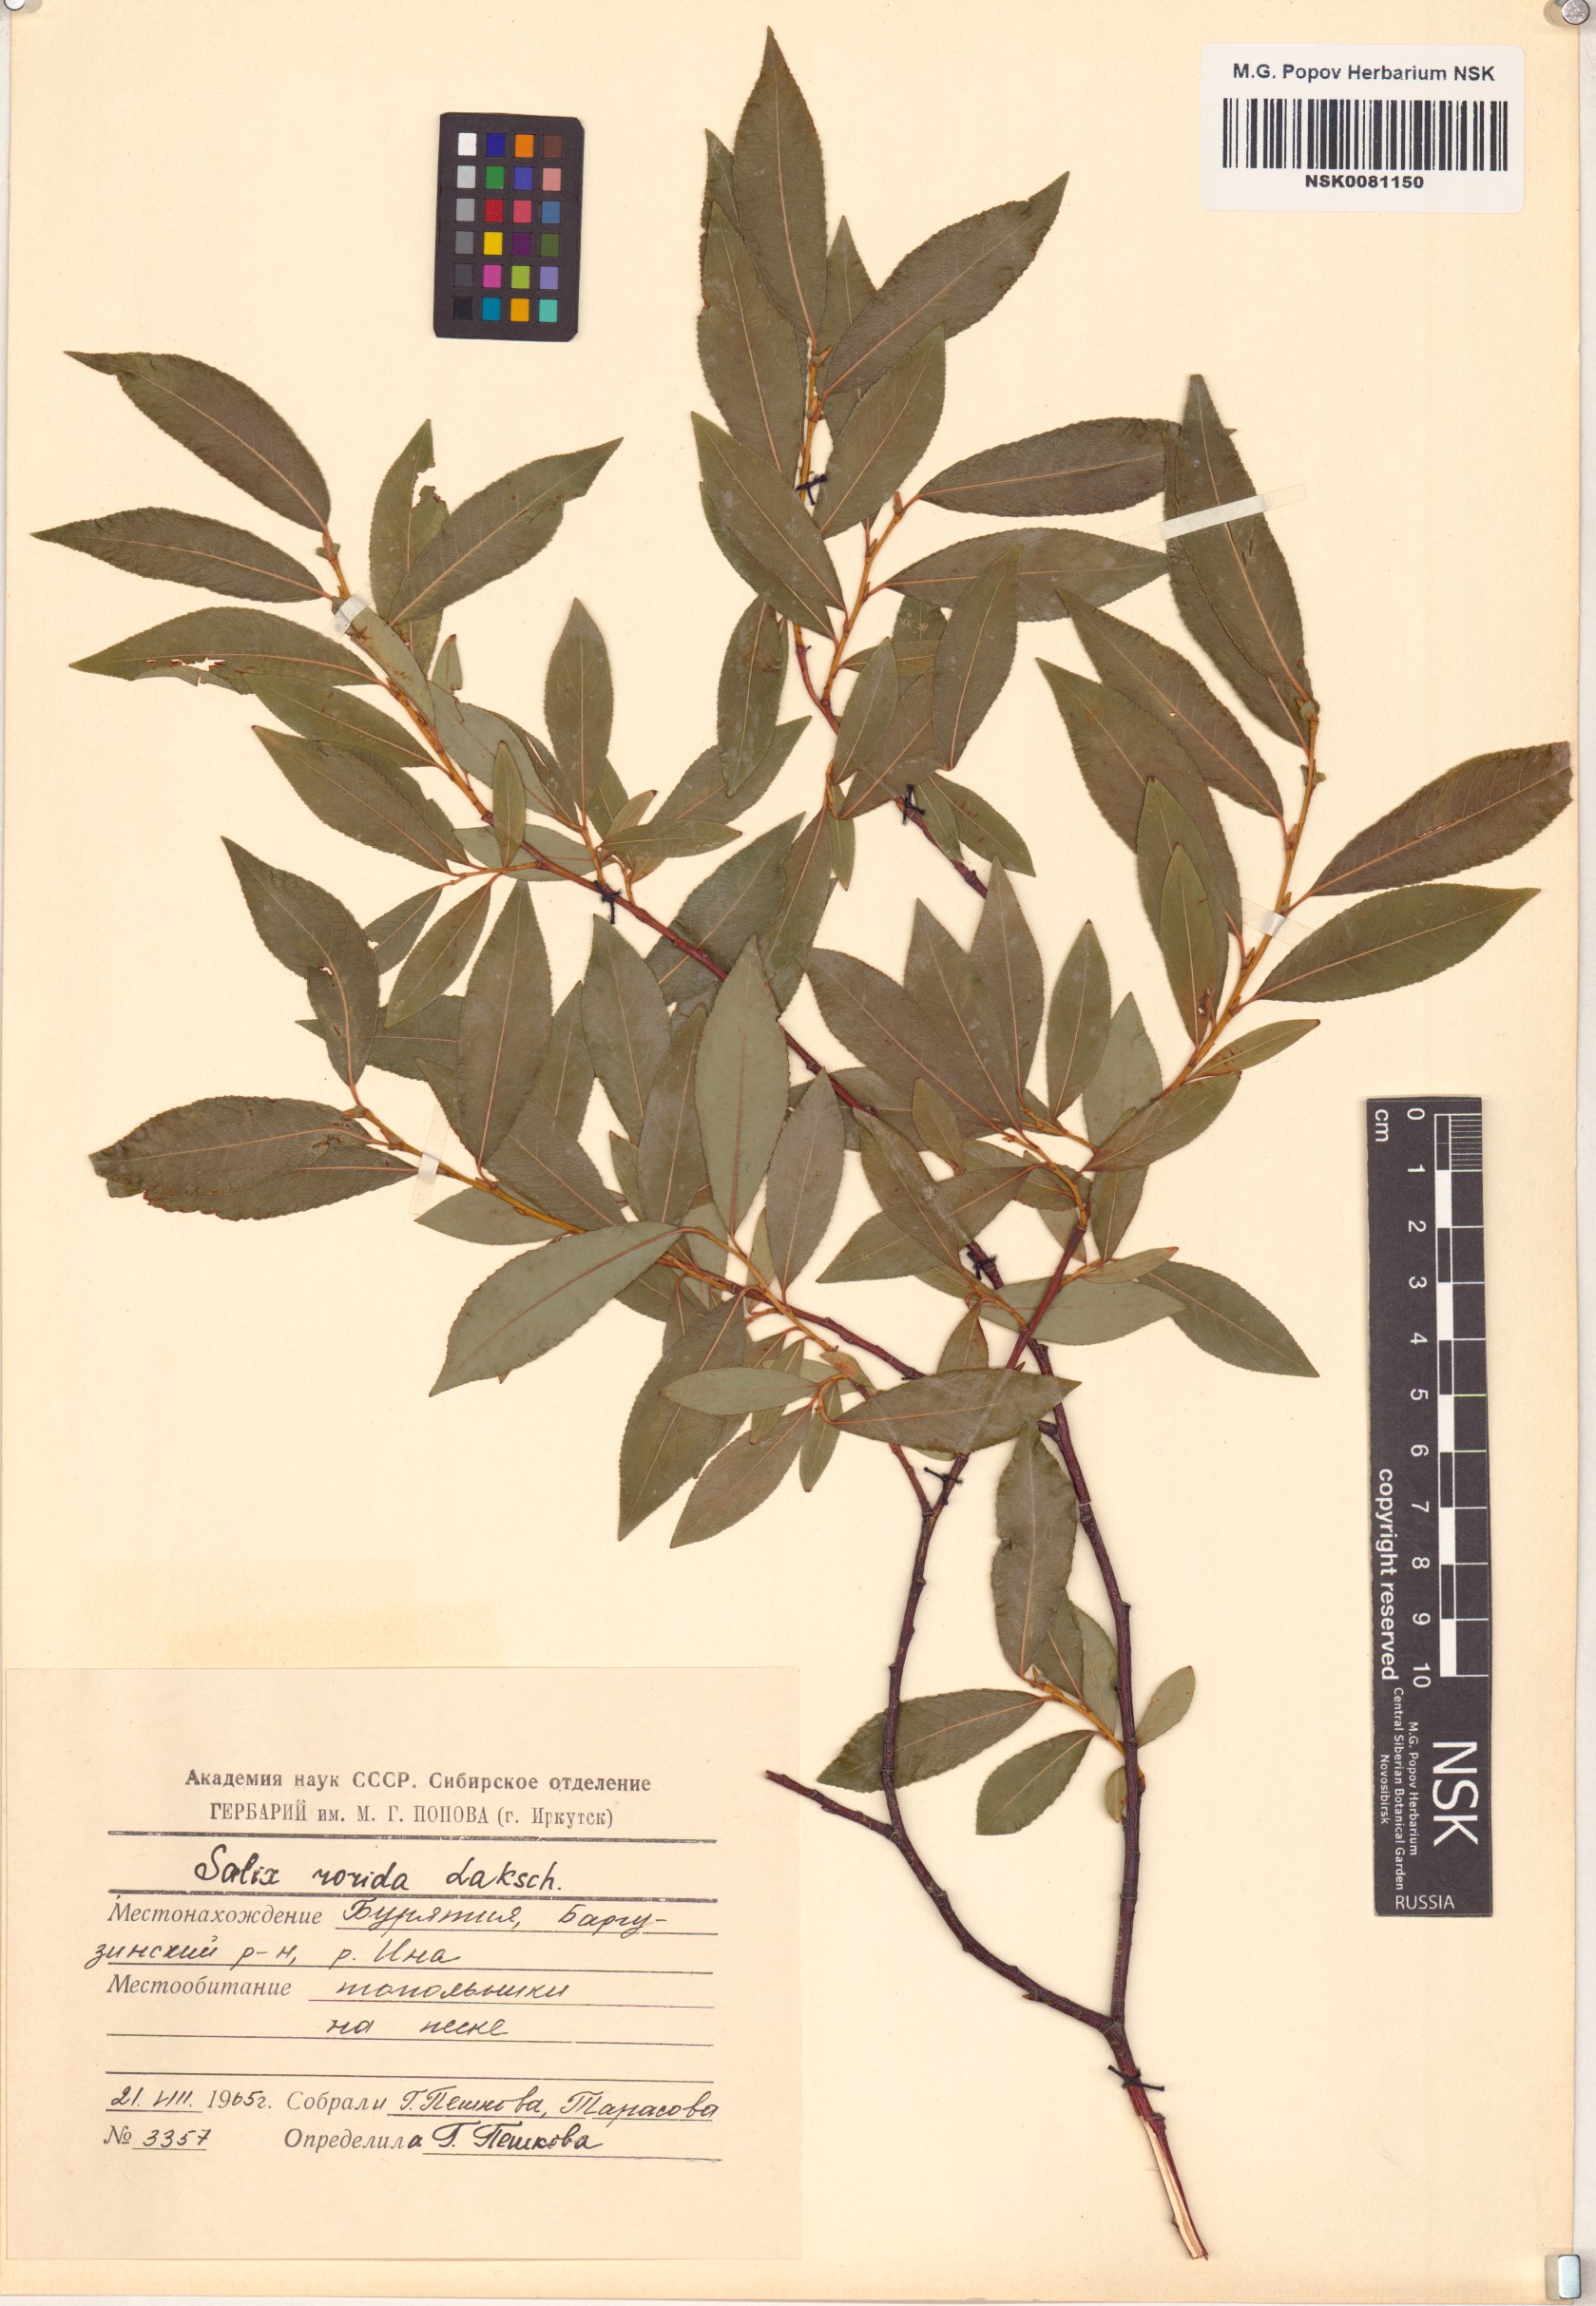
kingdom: Plantae
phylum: Tracheophyta
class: Magnoliopsida
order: Malpighiales
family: Salicaceae
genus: Salix
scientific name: Salix rorida
